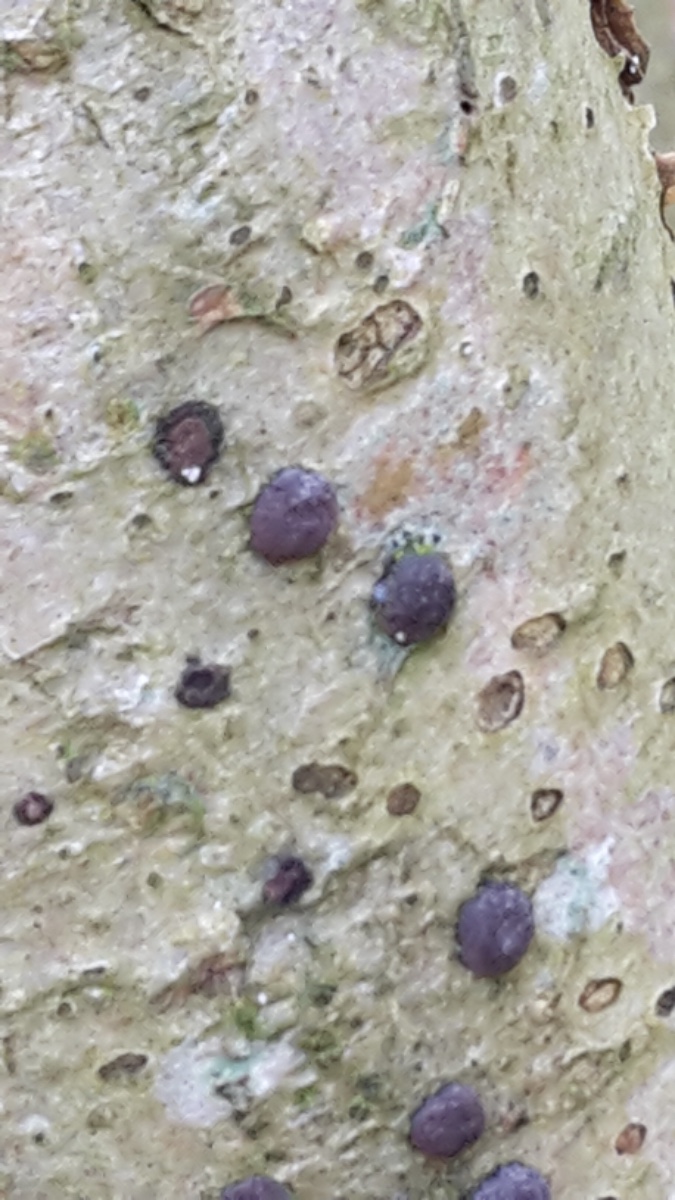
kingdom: Fungi
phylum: Ascomycota
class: Sordariomycetes
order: Xylariales
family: Hypoxylaceae
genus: Hypoxylon
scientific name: Hypoxylon fuscum
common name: kegleformet kulbær
